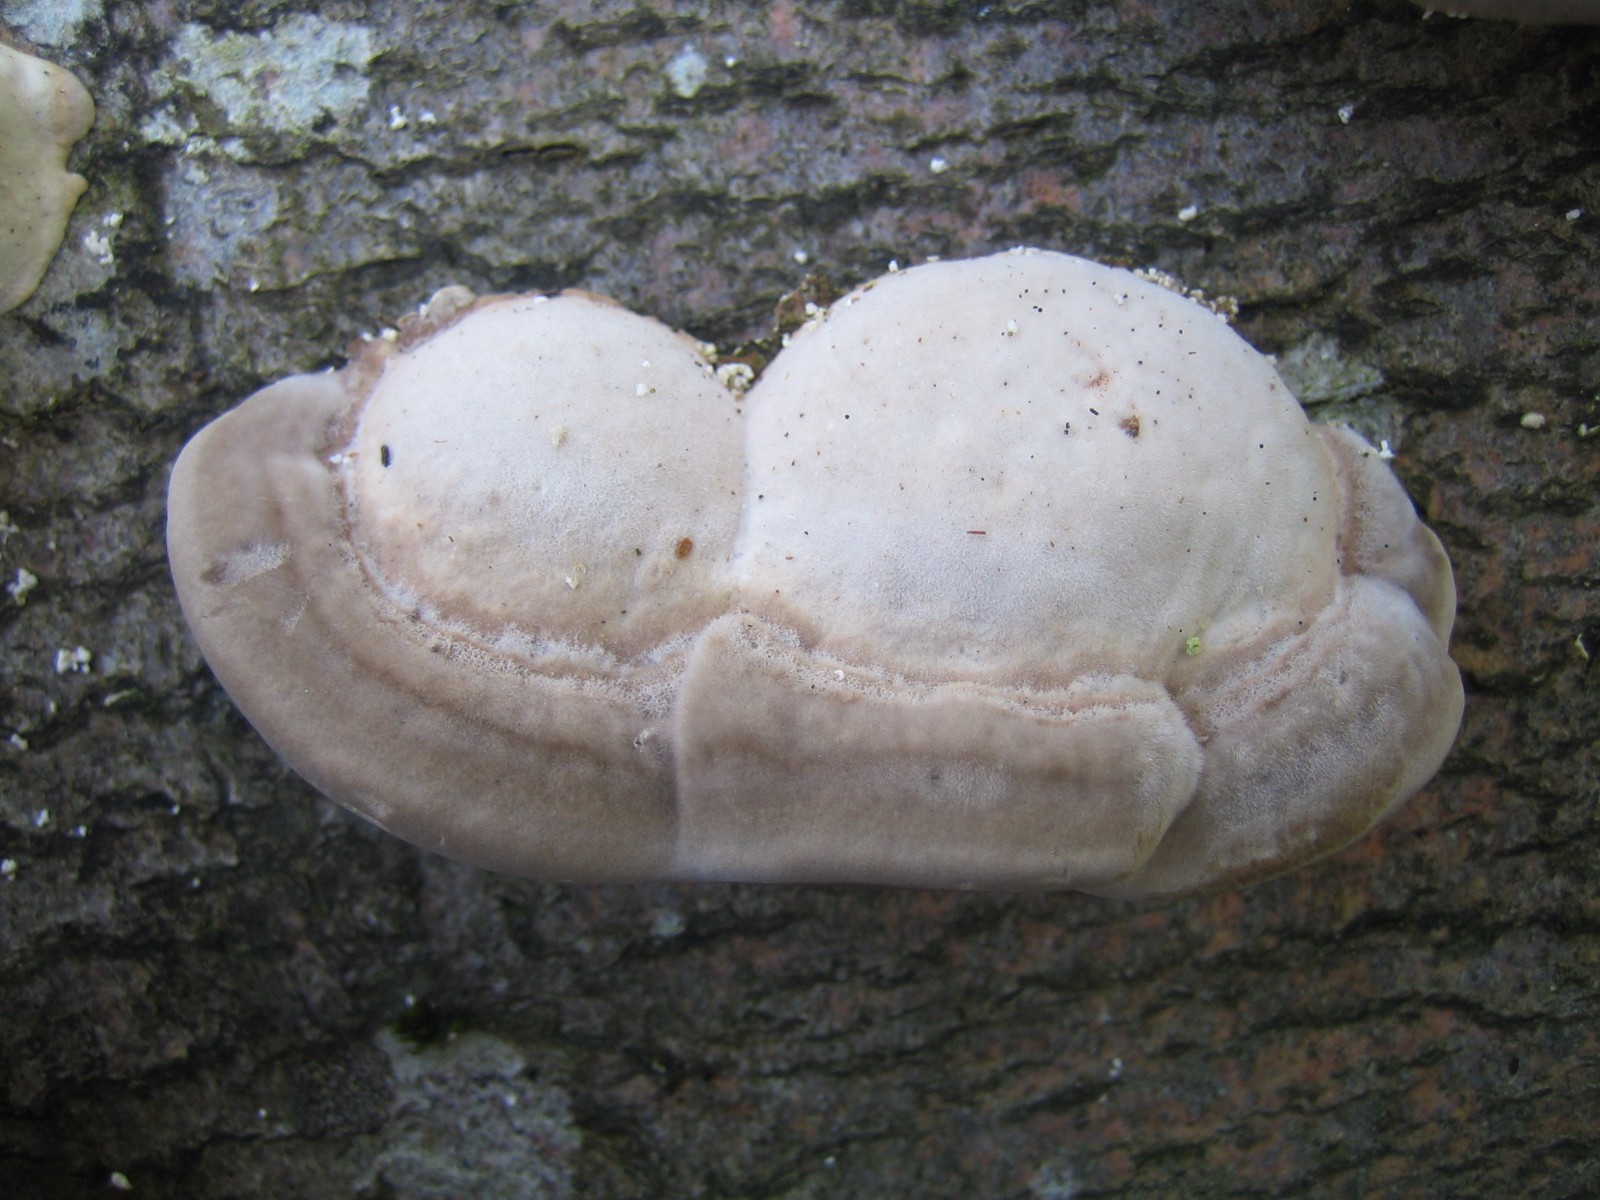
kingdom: Fungi
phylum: Basidiomycota
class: Agaricomycetes
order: Polyporales
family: Polyporaceae
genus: Trametes
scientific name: Trametes gibbosa
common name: puklet læderporesvamp
